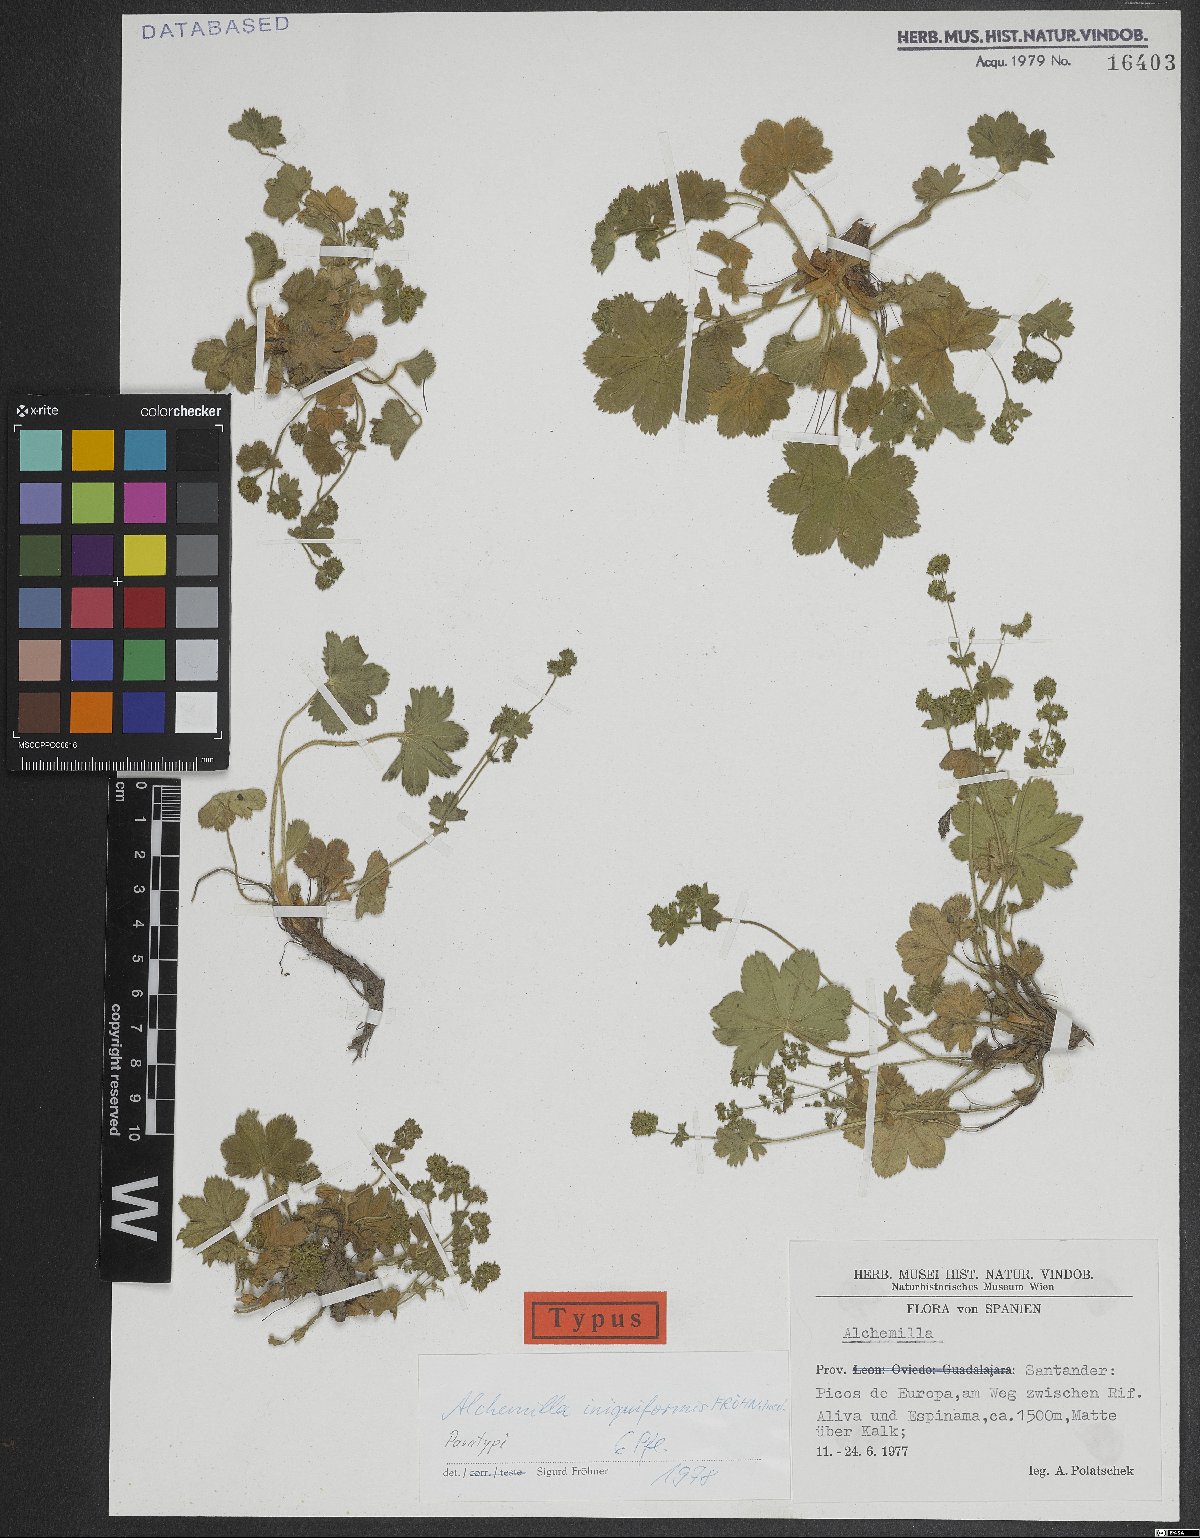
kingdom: Plantae
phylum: Tracheophyta
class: Magnoliopsida
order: Rosales
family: Rosaceae
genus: Alchemilla
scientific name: Alchemilla iniquiformis
